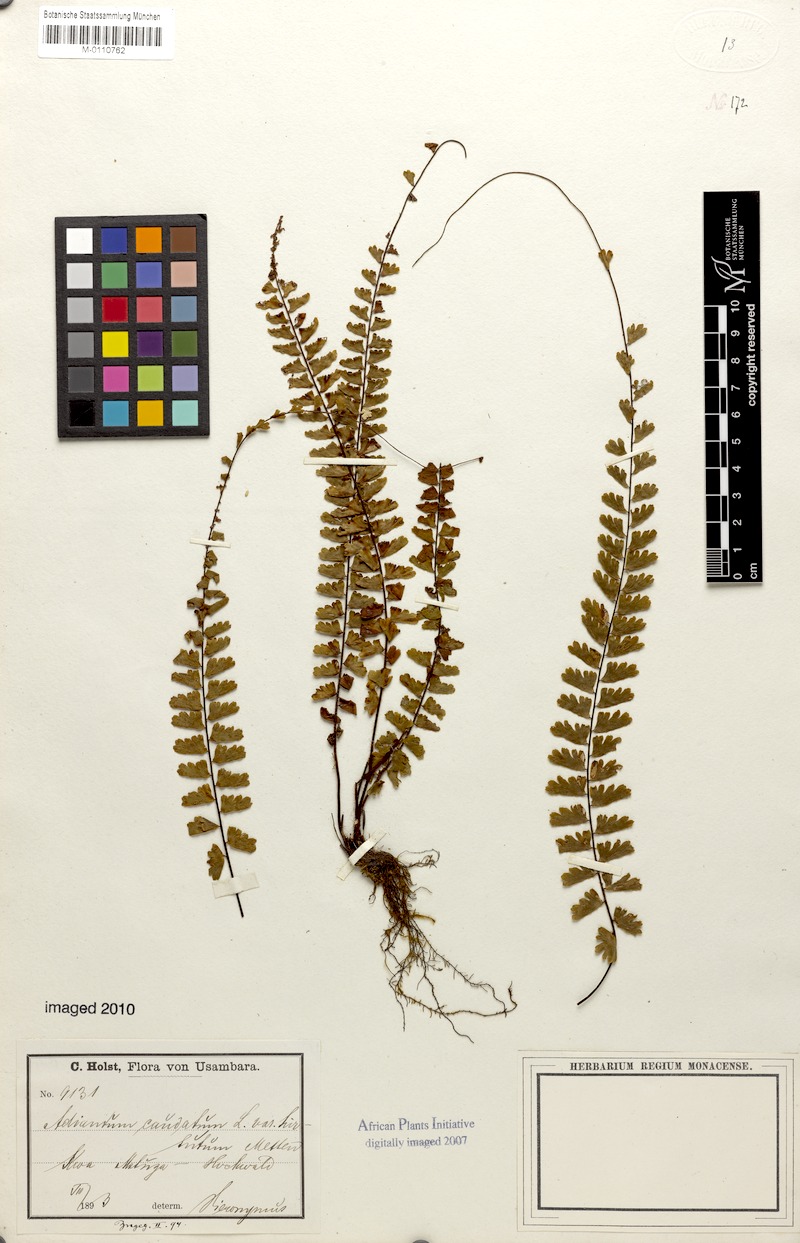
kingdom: Plantae
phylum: Tracheophyta
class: Polypodiopsida
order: Polypodiales
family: Pteridaceae
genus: Adiantum
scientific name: Adiantum caudatum
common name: Tailed maidenhair
